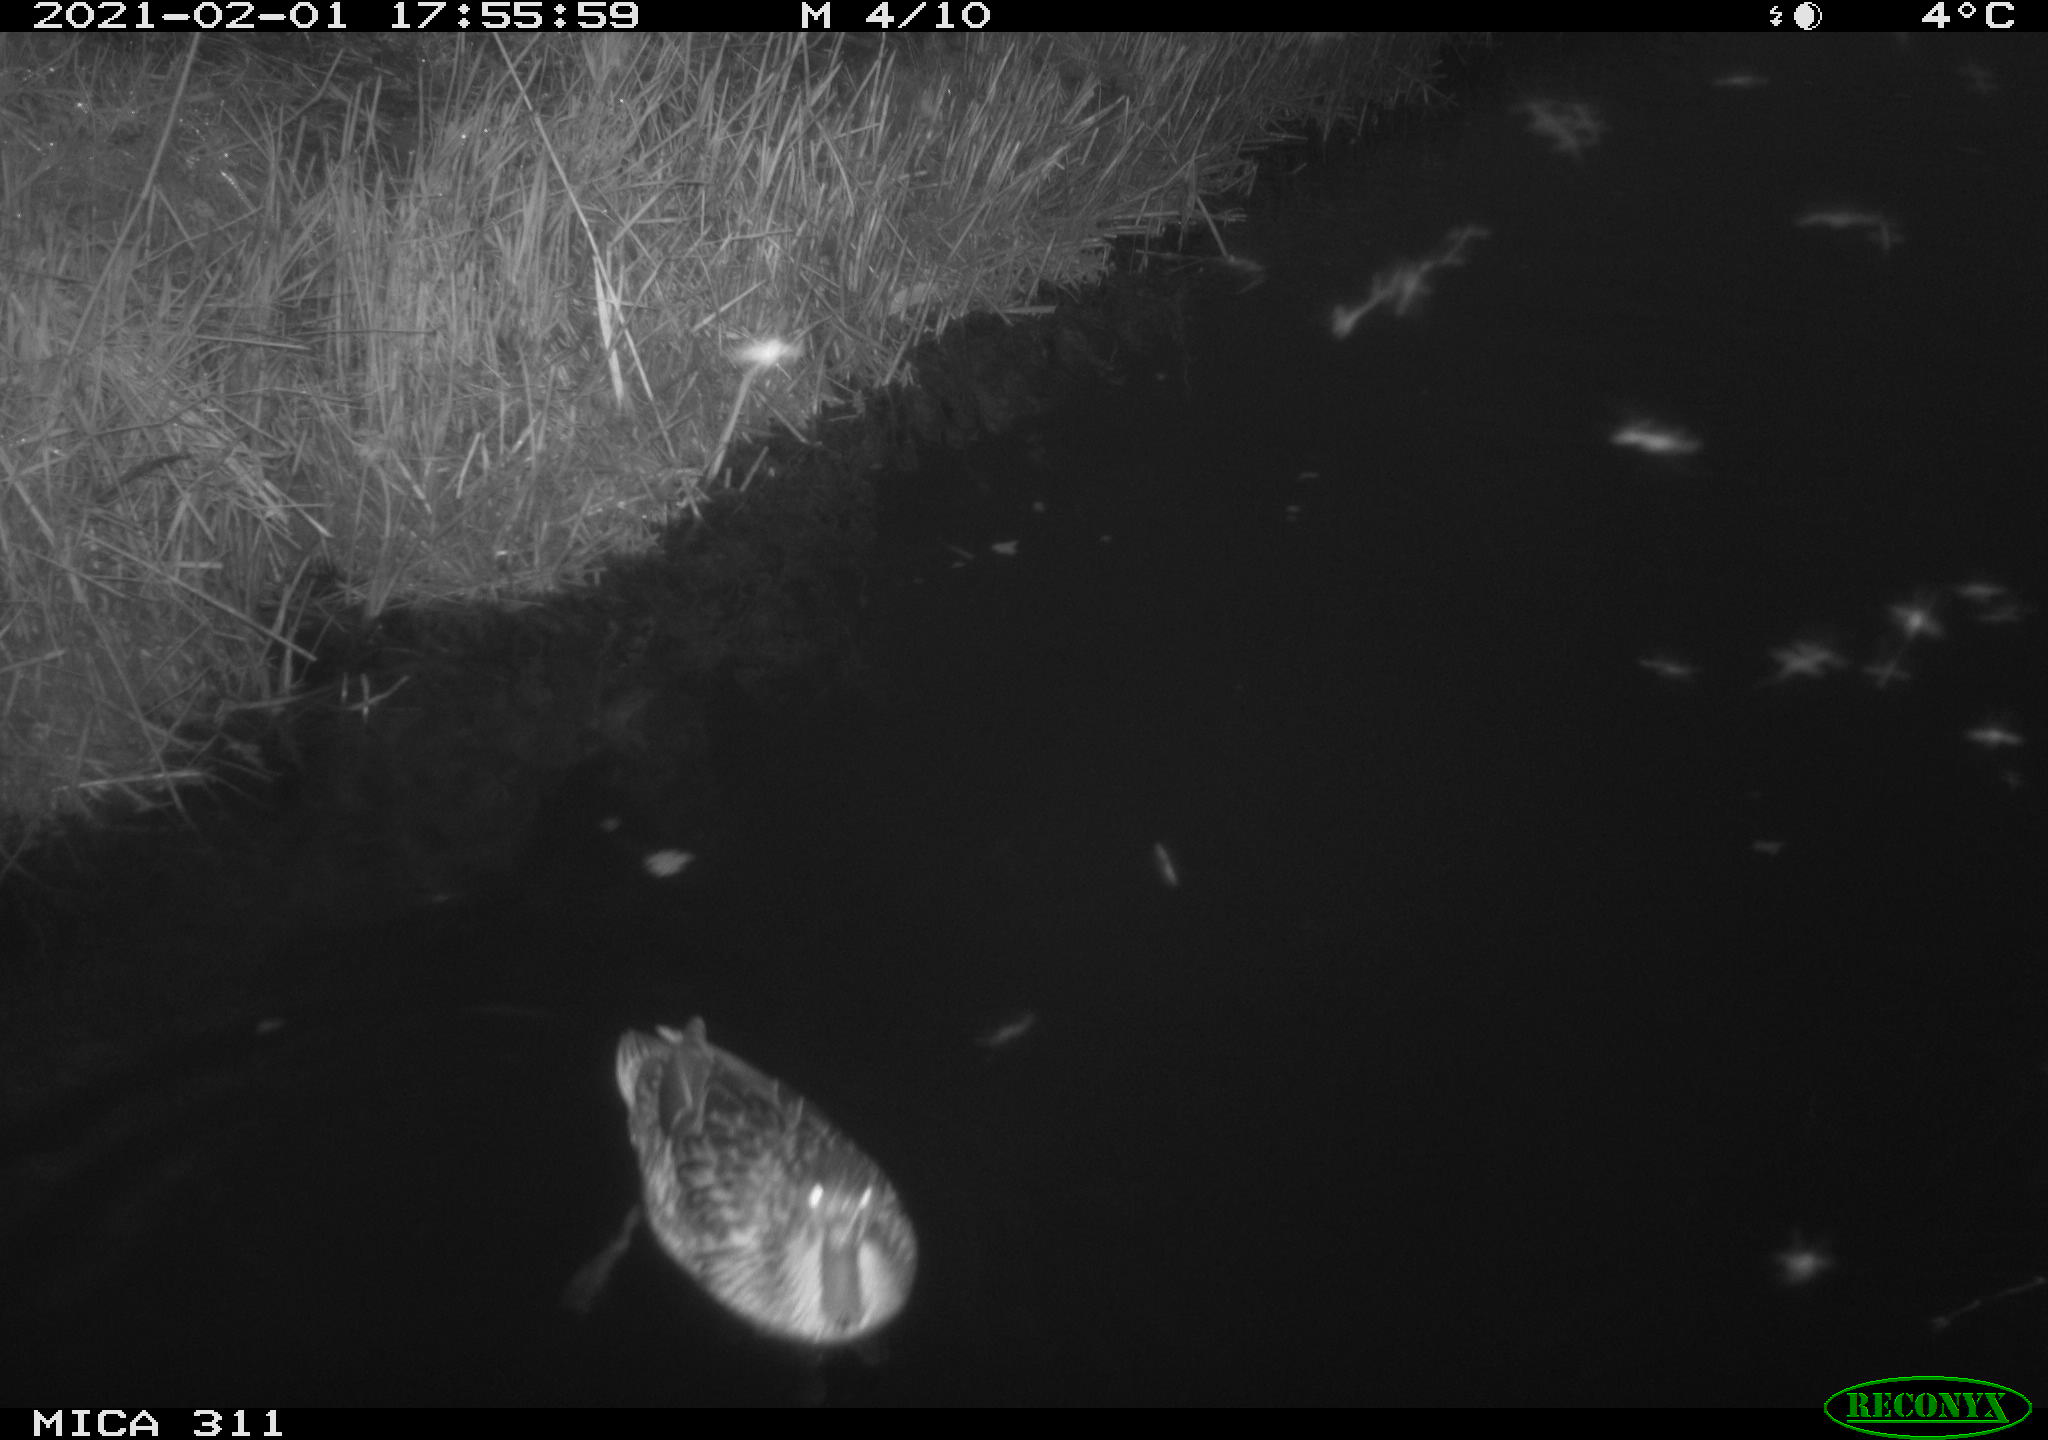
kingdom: Animalia
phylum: Chordata
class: Aves
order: Anseriformes
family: Anatidae
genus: Anas
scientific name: Anas platyrhynchos
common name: Mallard
